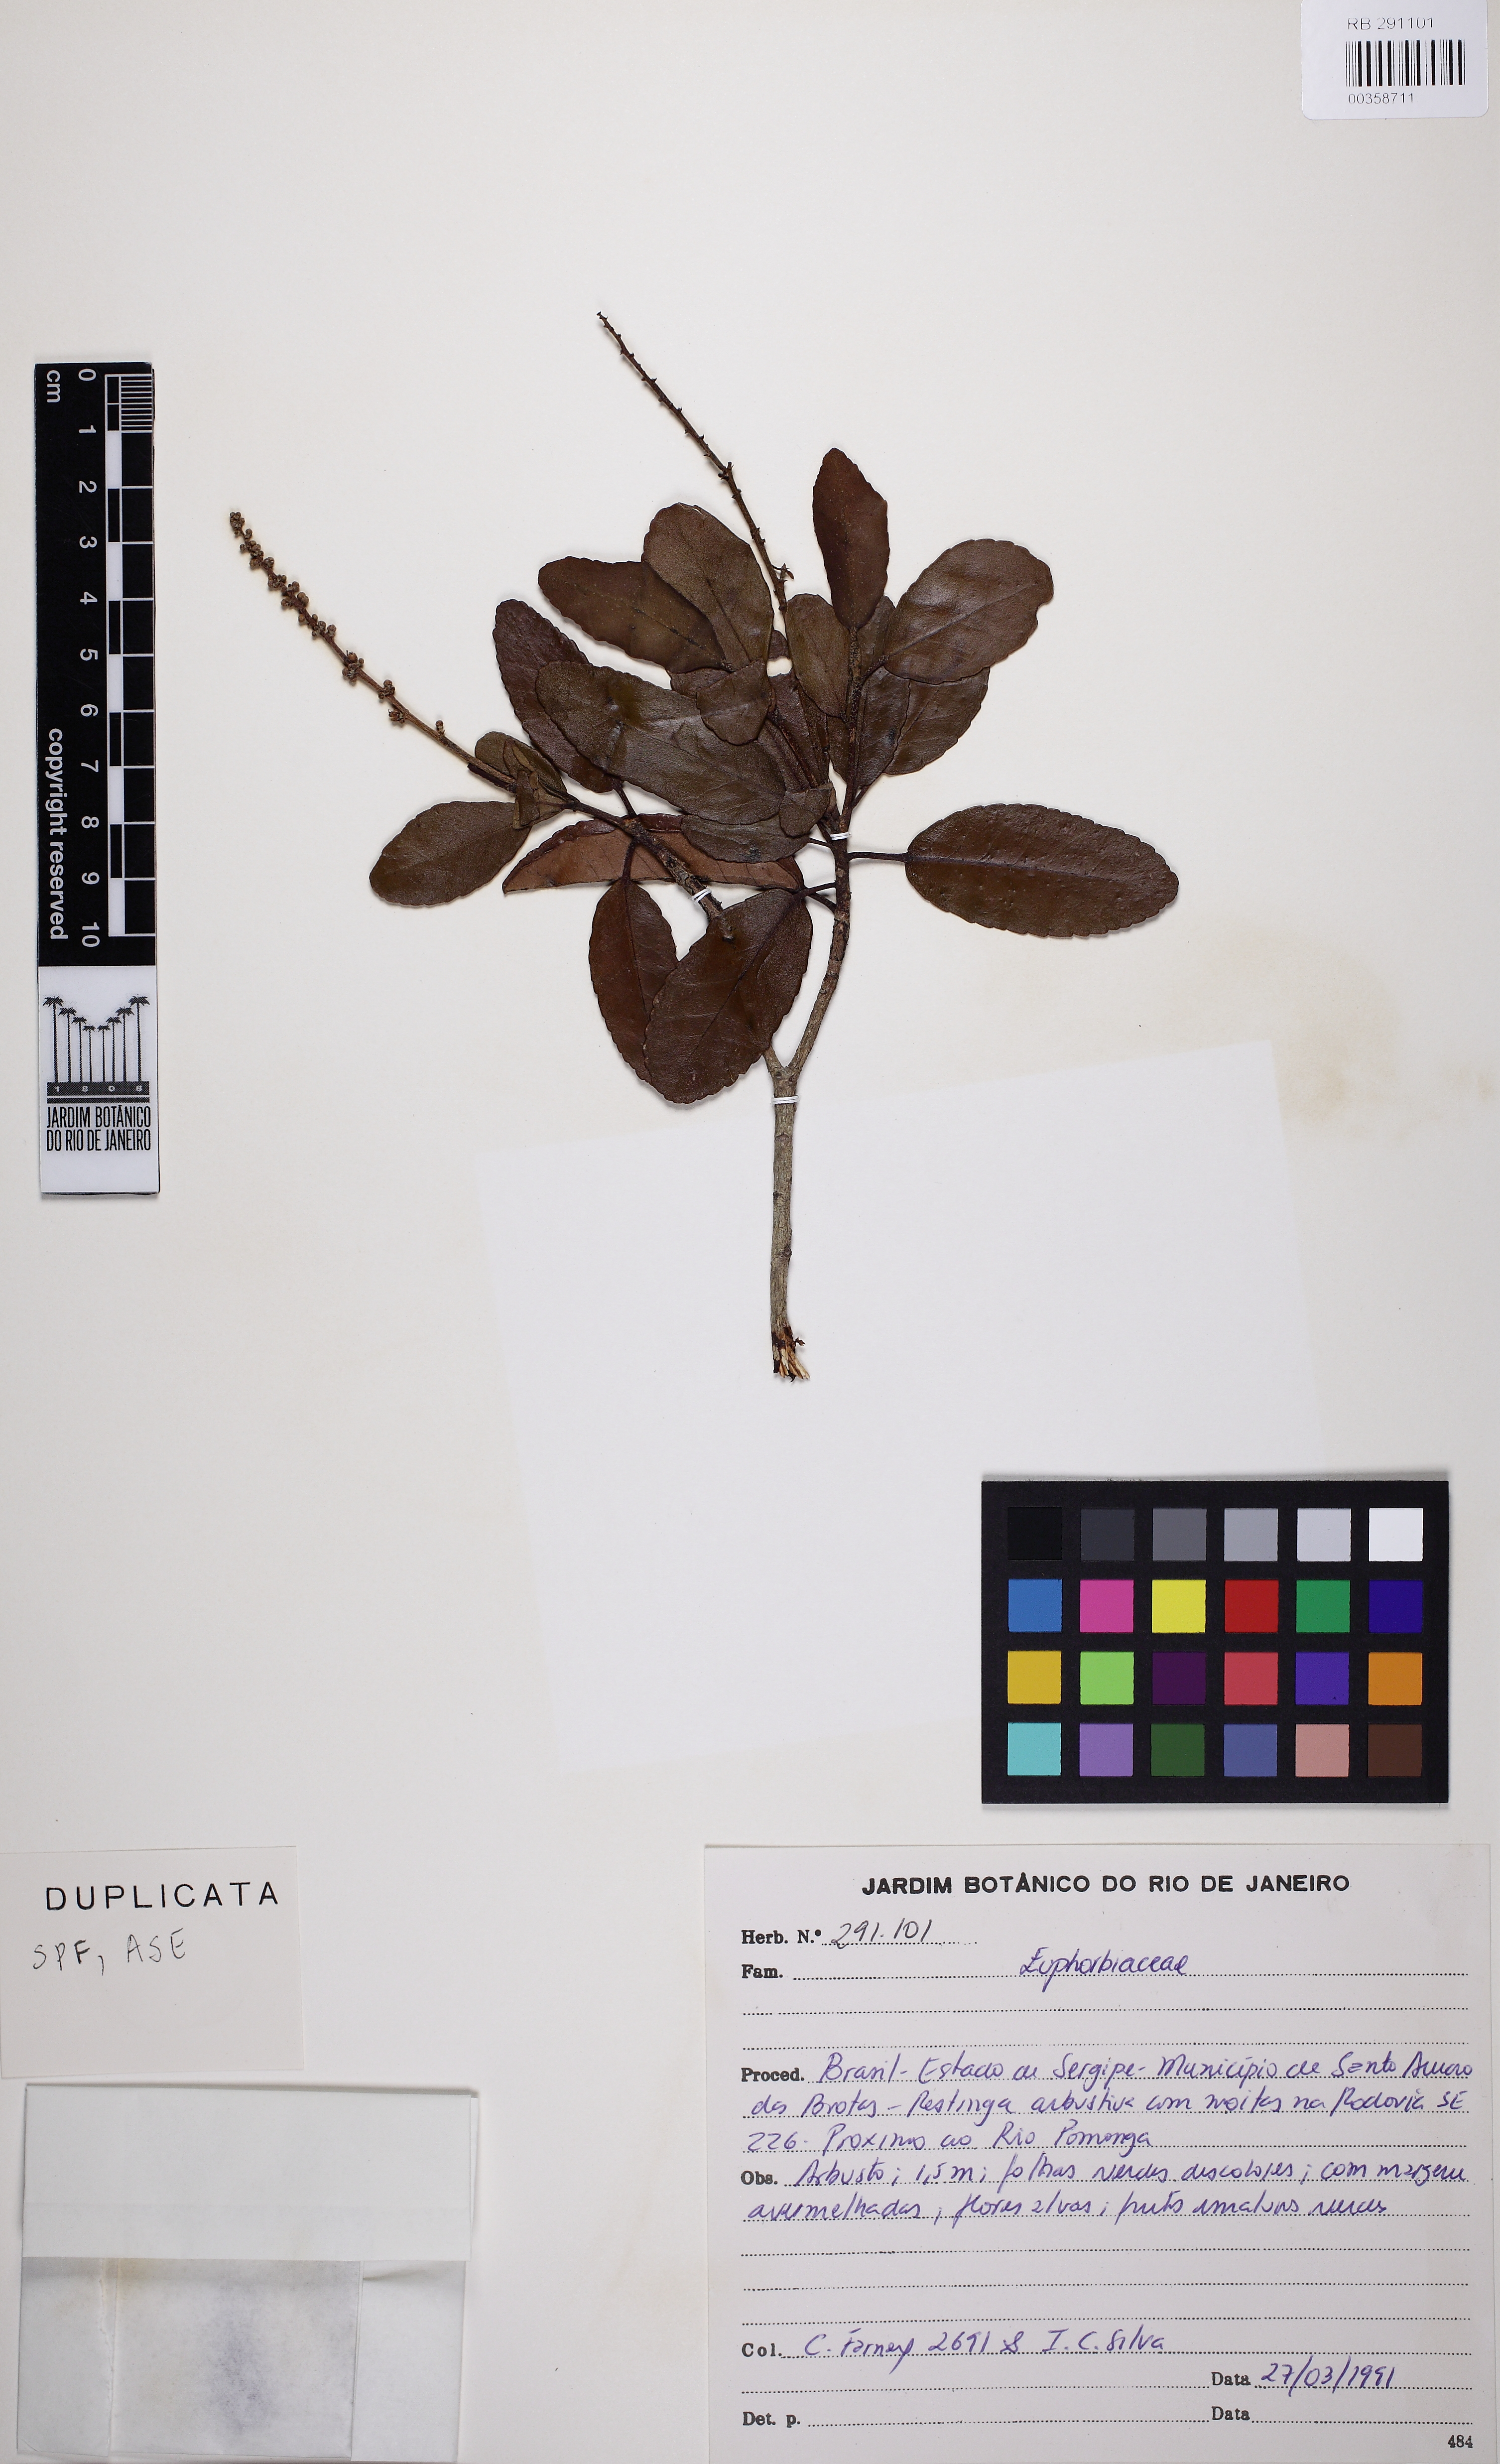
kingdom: Plantae
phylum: Tracheophyta
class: Magnoliopsida
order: Malpighiales
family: Euphorbiaceae
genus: Croton
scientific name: Croton polyandrus
